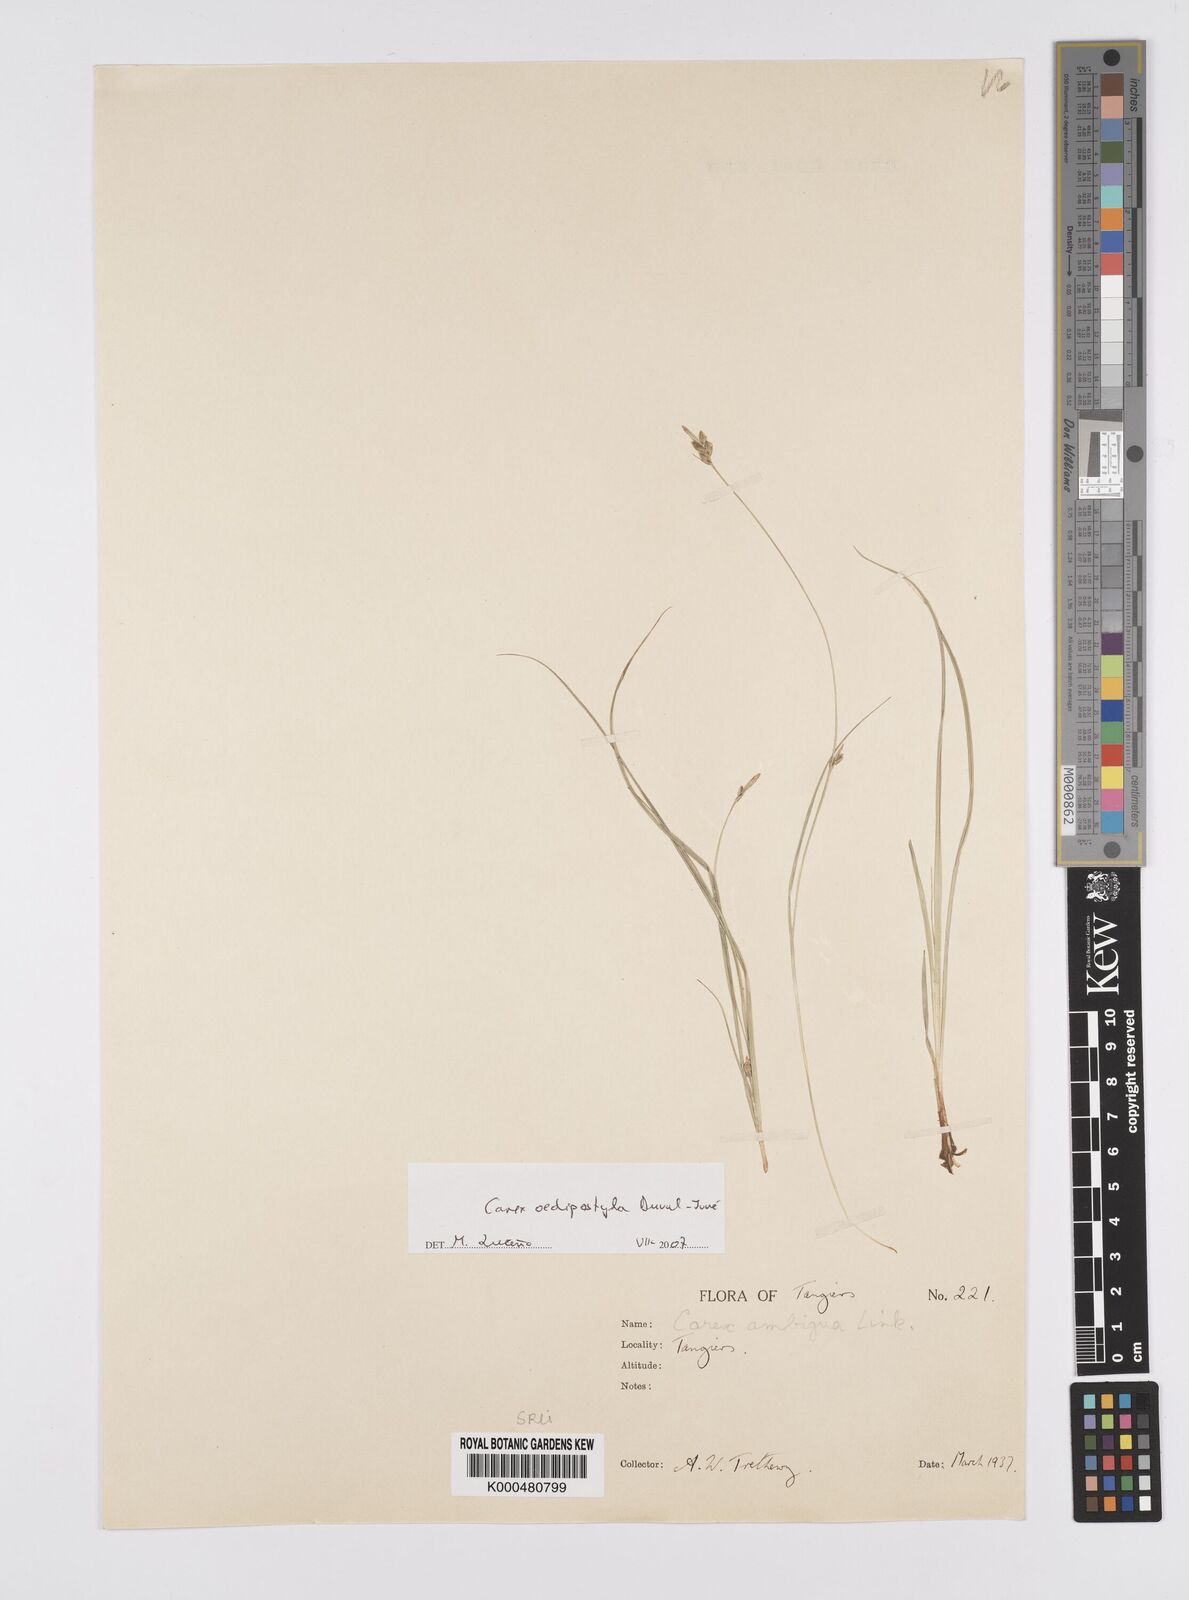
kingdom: Plantae
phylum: Tracheophyta
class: Liliopsida
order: Poales
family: Cyperaceae
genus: Carex
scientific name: Carex oedipostyla
